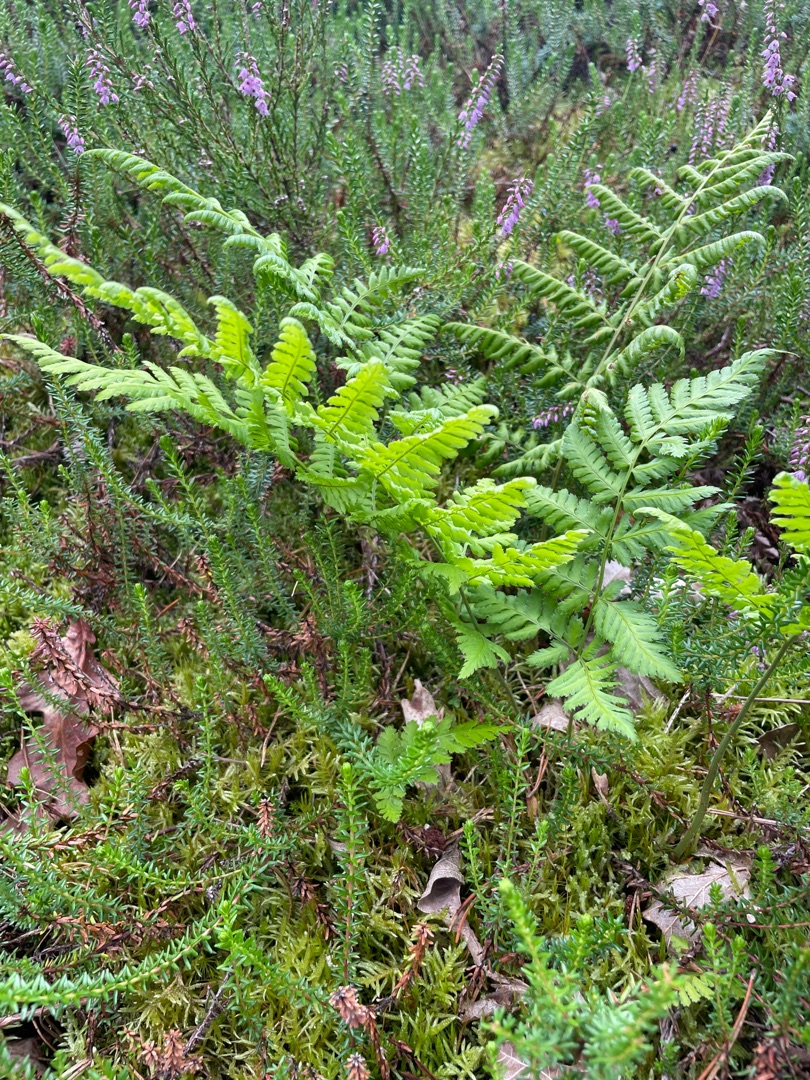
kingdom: Plantae
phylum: Tracheophyta
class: Polypodiopsida
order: Polypodiales
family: Dryopteridaceae
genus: Dryopteris
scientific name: Dryopteris
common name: Mangeløv (Dryopteris-slægten)
